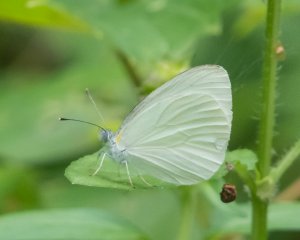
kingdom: Animalia
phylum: Arthropoda
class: Insecta
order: Lepidoptera
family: Pieridae
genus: Pieris
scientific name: Pieris oleracea
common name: Mustard White
